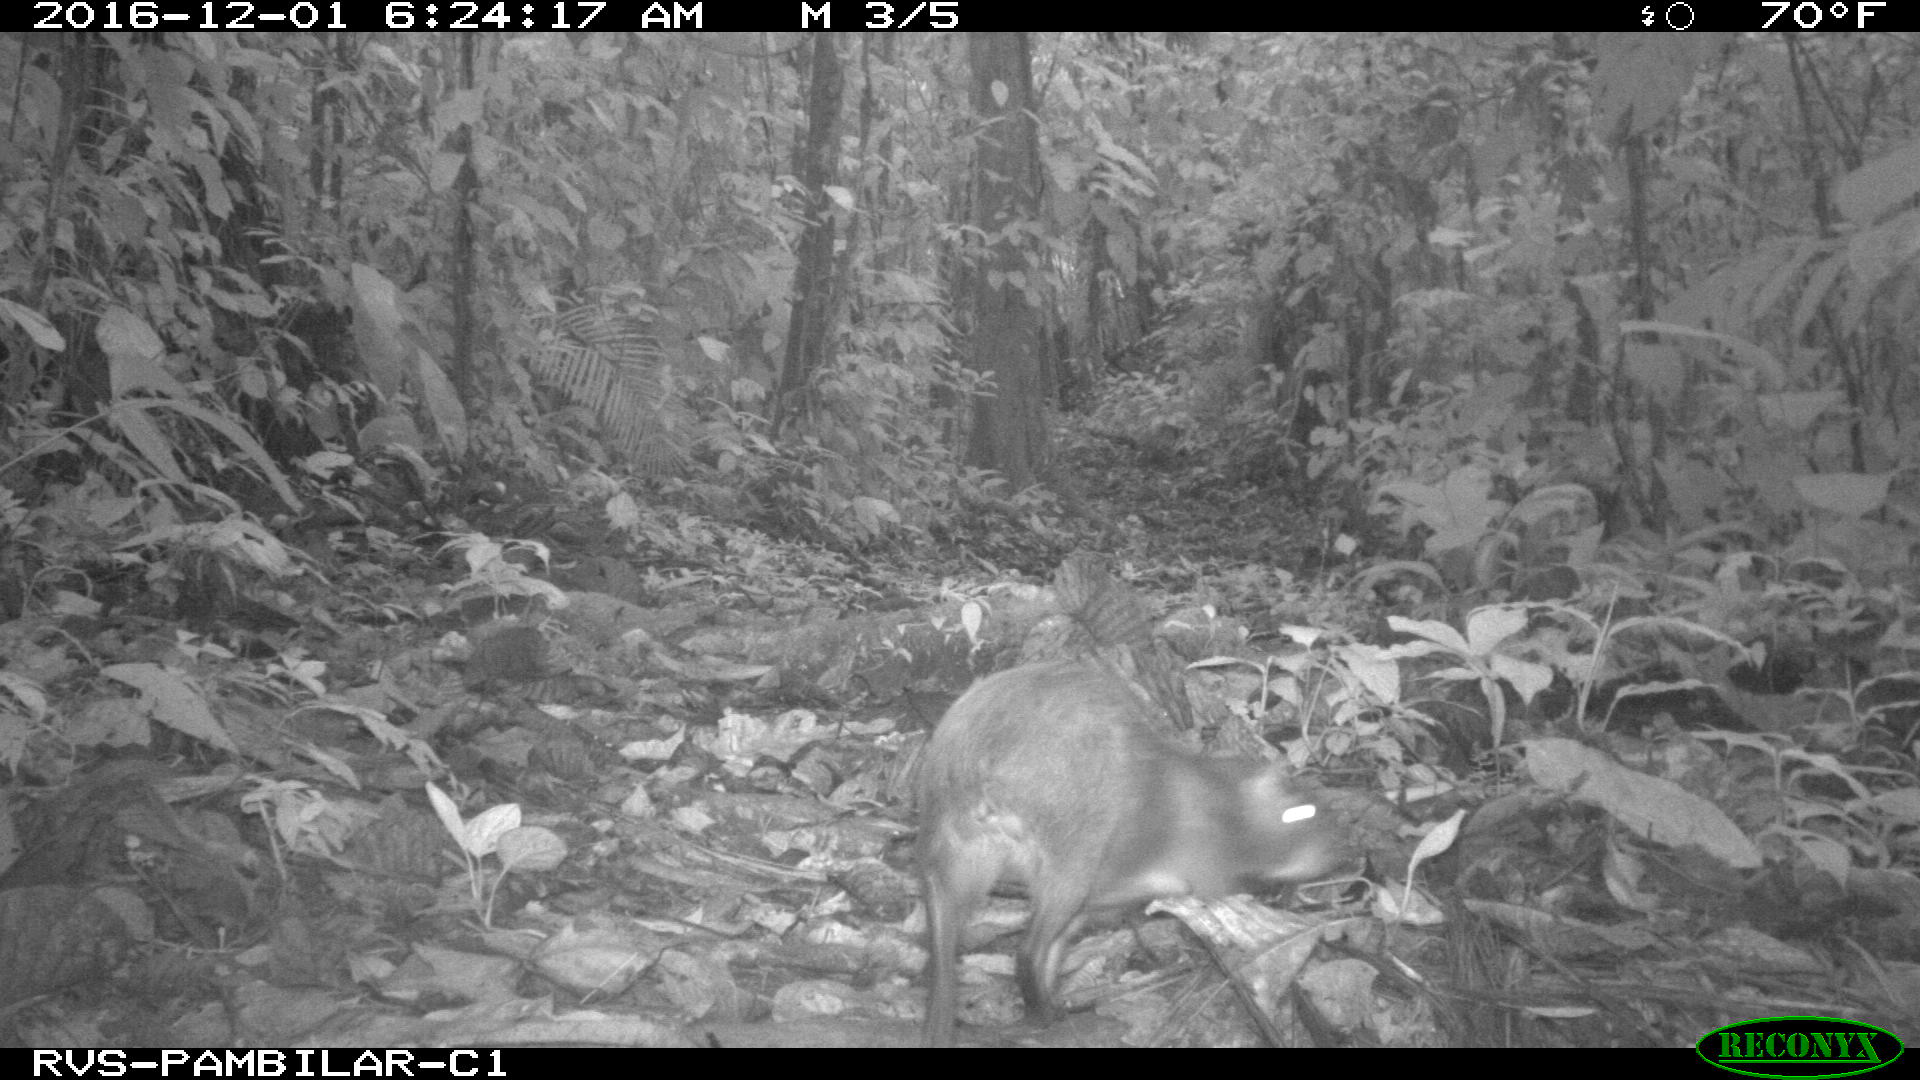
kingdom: Animalia
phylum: Chordata
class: Mammalia
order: Rodentia
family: Dasyproctidae
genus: Dasyprocta
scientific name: Dasyprocta punctata
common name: Central american agouti
